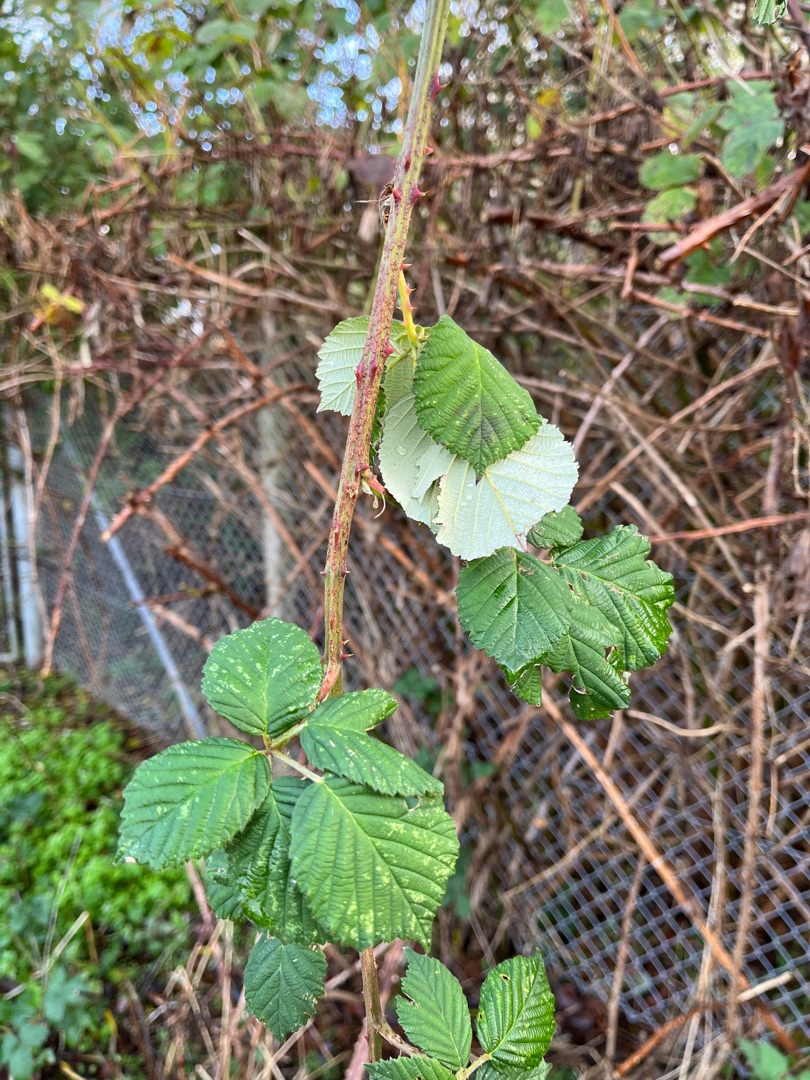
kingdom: Plantae
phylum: Tracheophyta
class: Magnoliopsida
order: Rosales
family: Rosaceae
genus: Rubus
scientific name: Rubus armeniacus
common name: Armensk brombær
